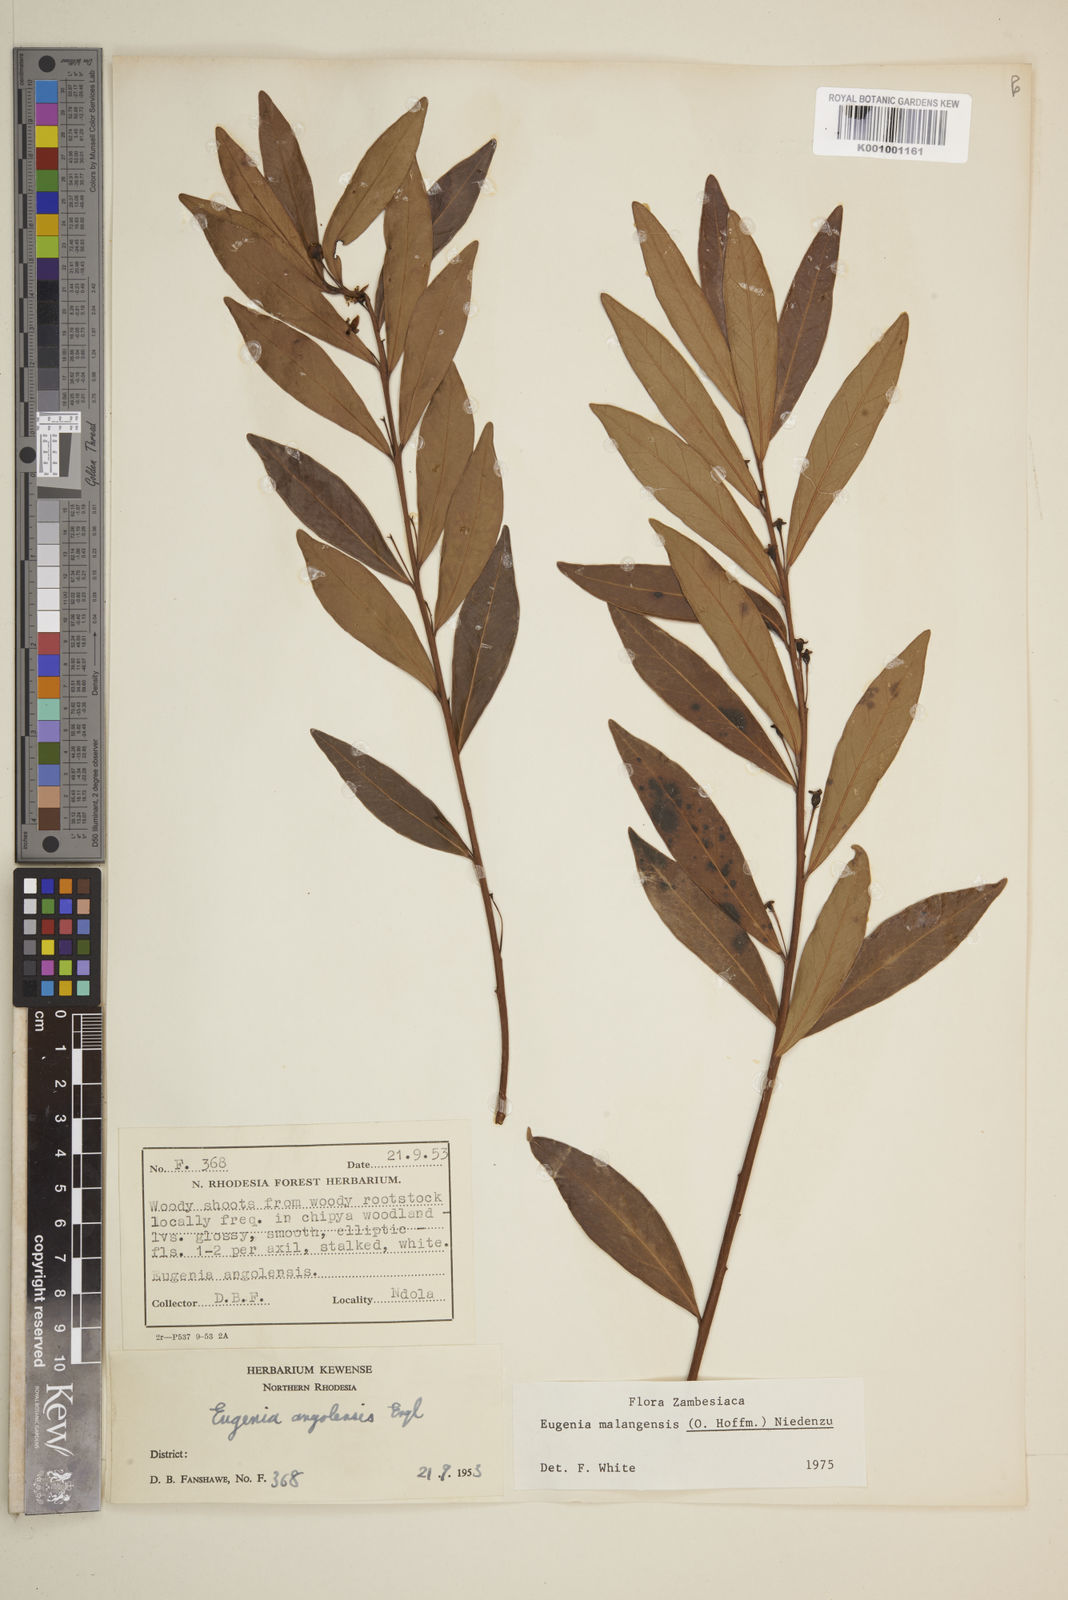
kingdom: Plantae
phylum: Tracheophyta
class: Magnoliopsida
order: Myrtales
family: Myrtaceae
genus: Eugenia
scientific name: Eugenia malangensis
